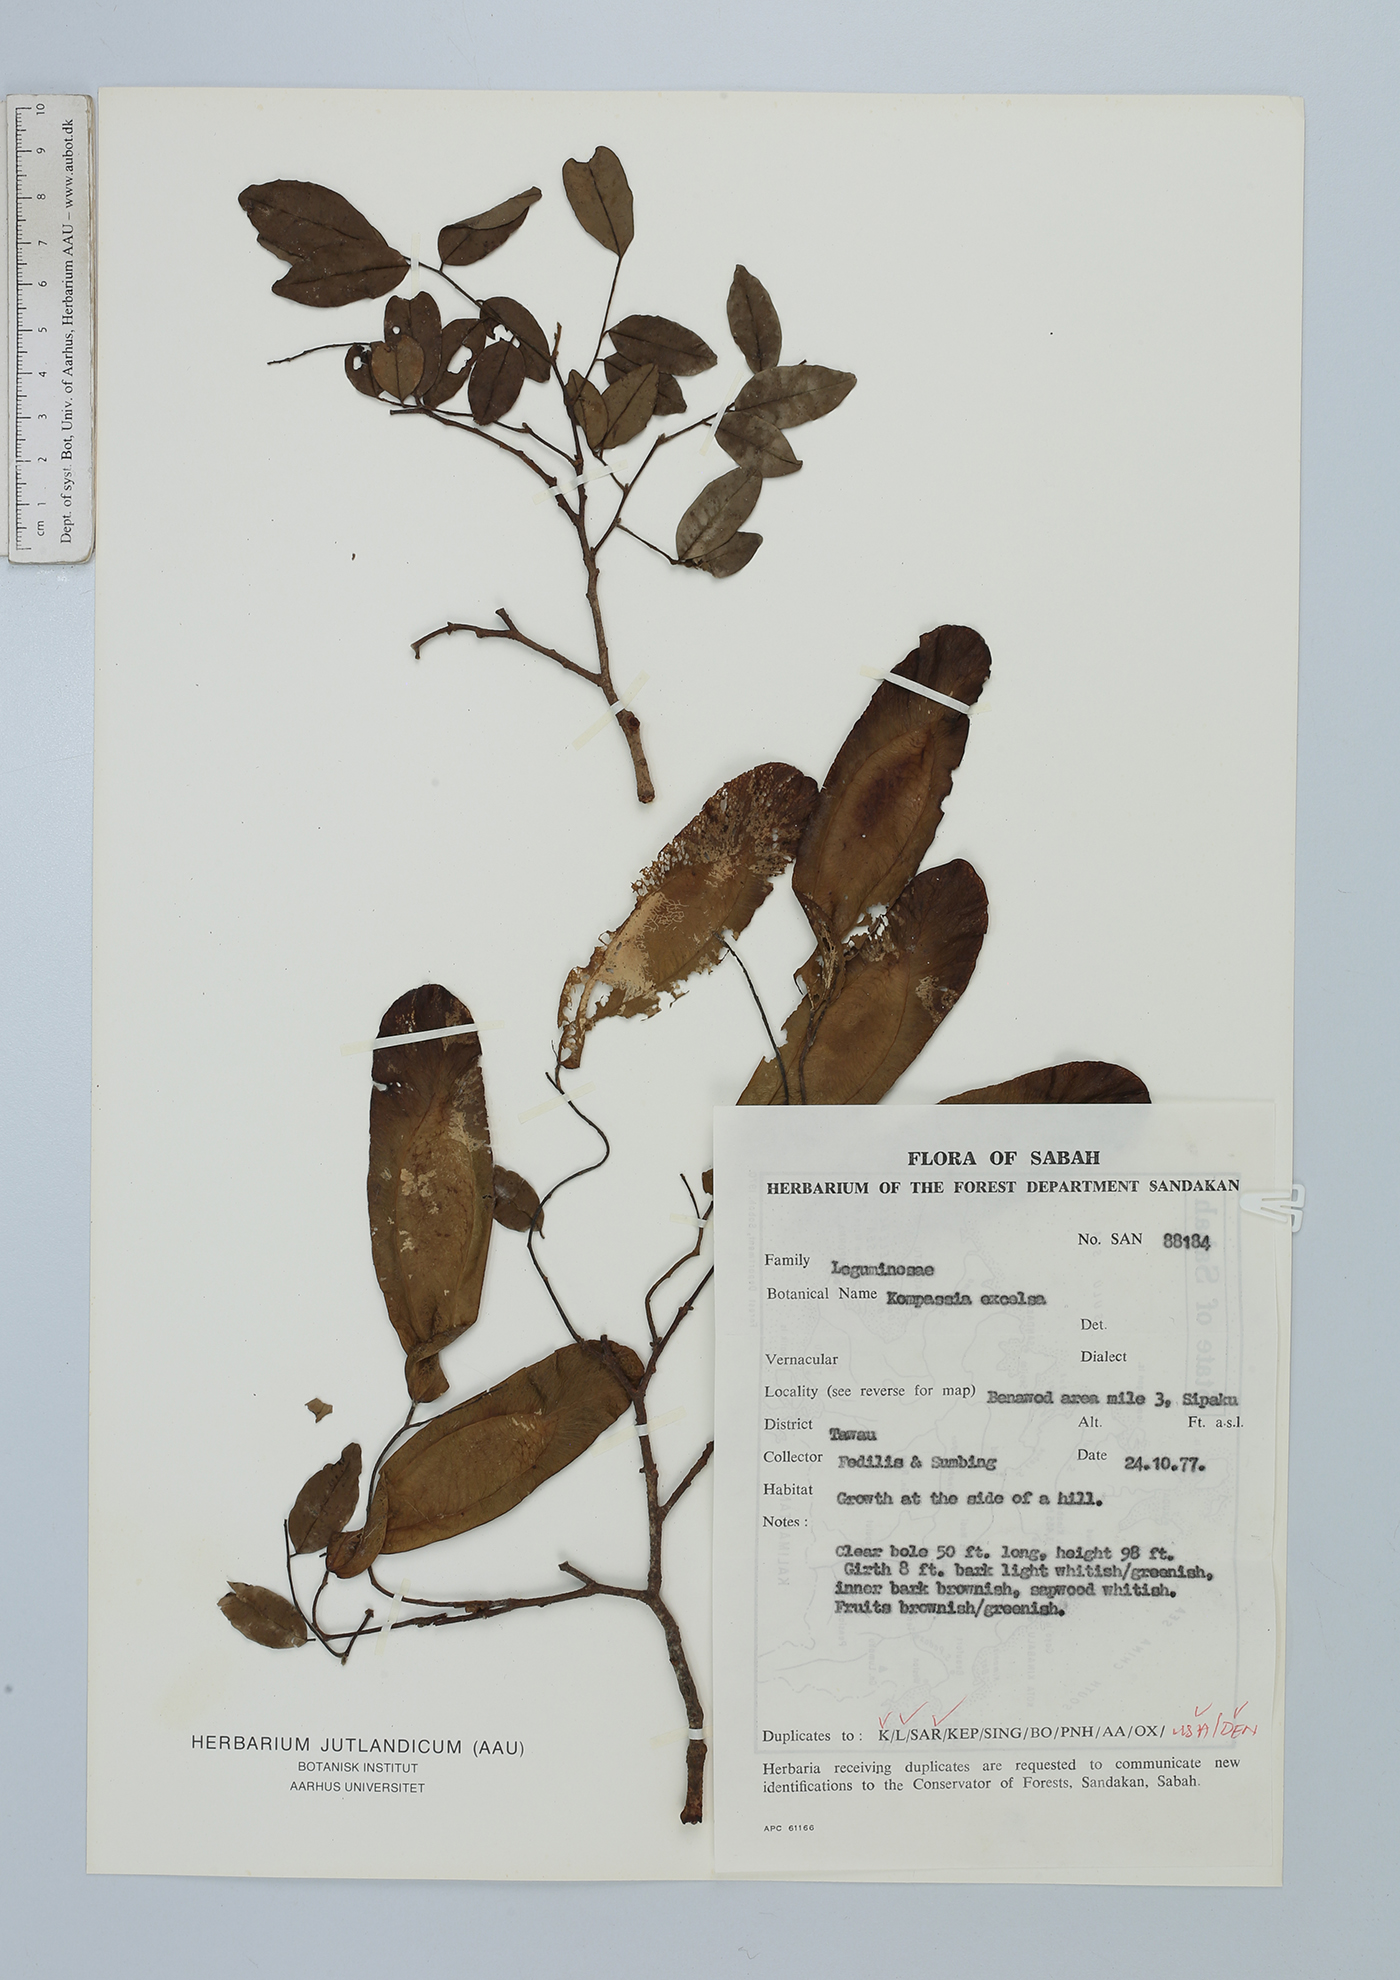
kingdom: Plantae
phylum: Tracheophyta
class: Magnoliopsida
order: Fabales
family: Fabaceae
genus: Koompassia
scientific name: Koompassia malaccensis
